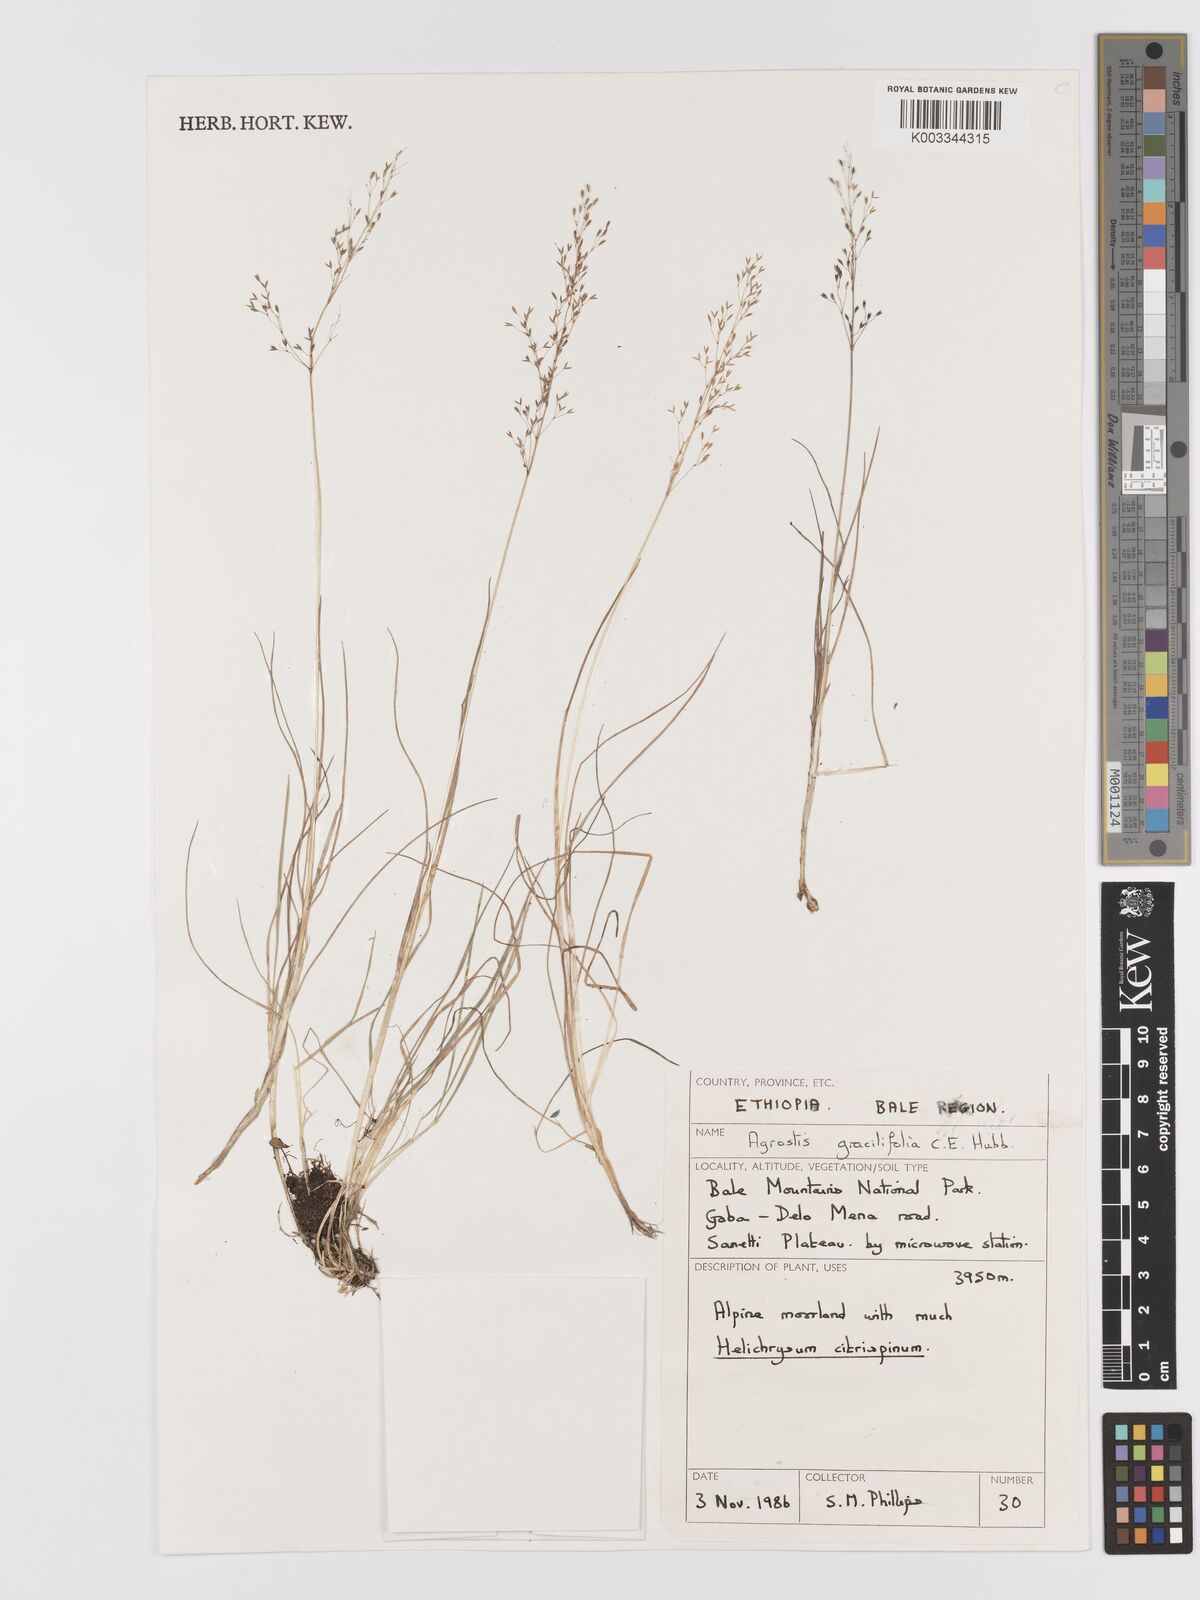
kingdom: Plantae
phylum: Tracheophyta
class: Liliopsida
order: Poales
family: Poaceae
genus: Agrostis
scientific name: Agrostis gracilifolia
